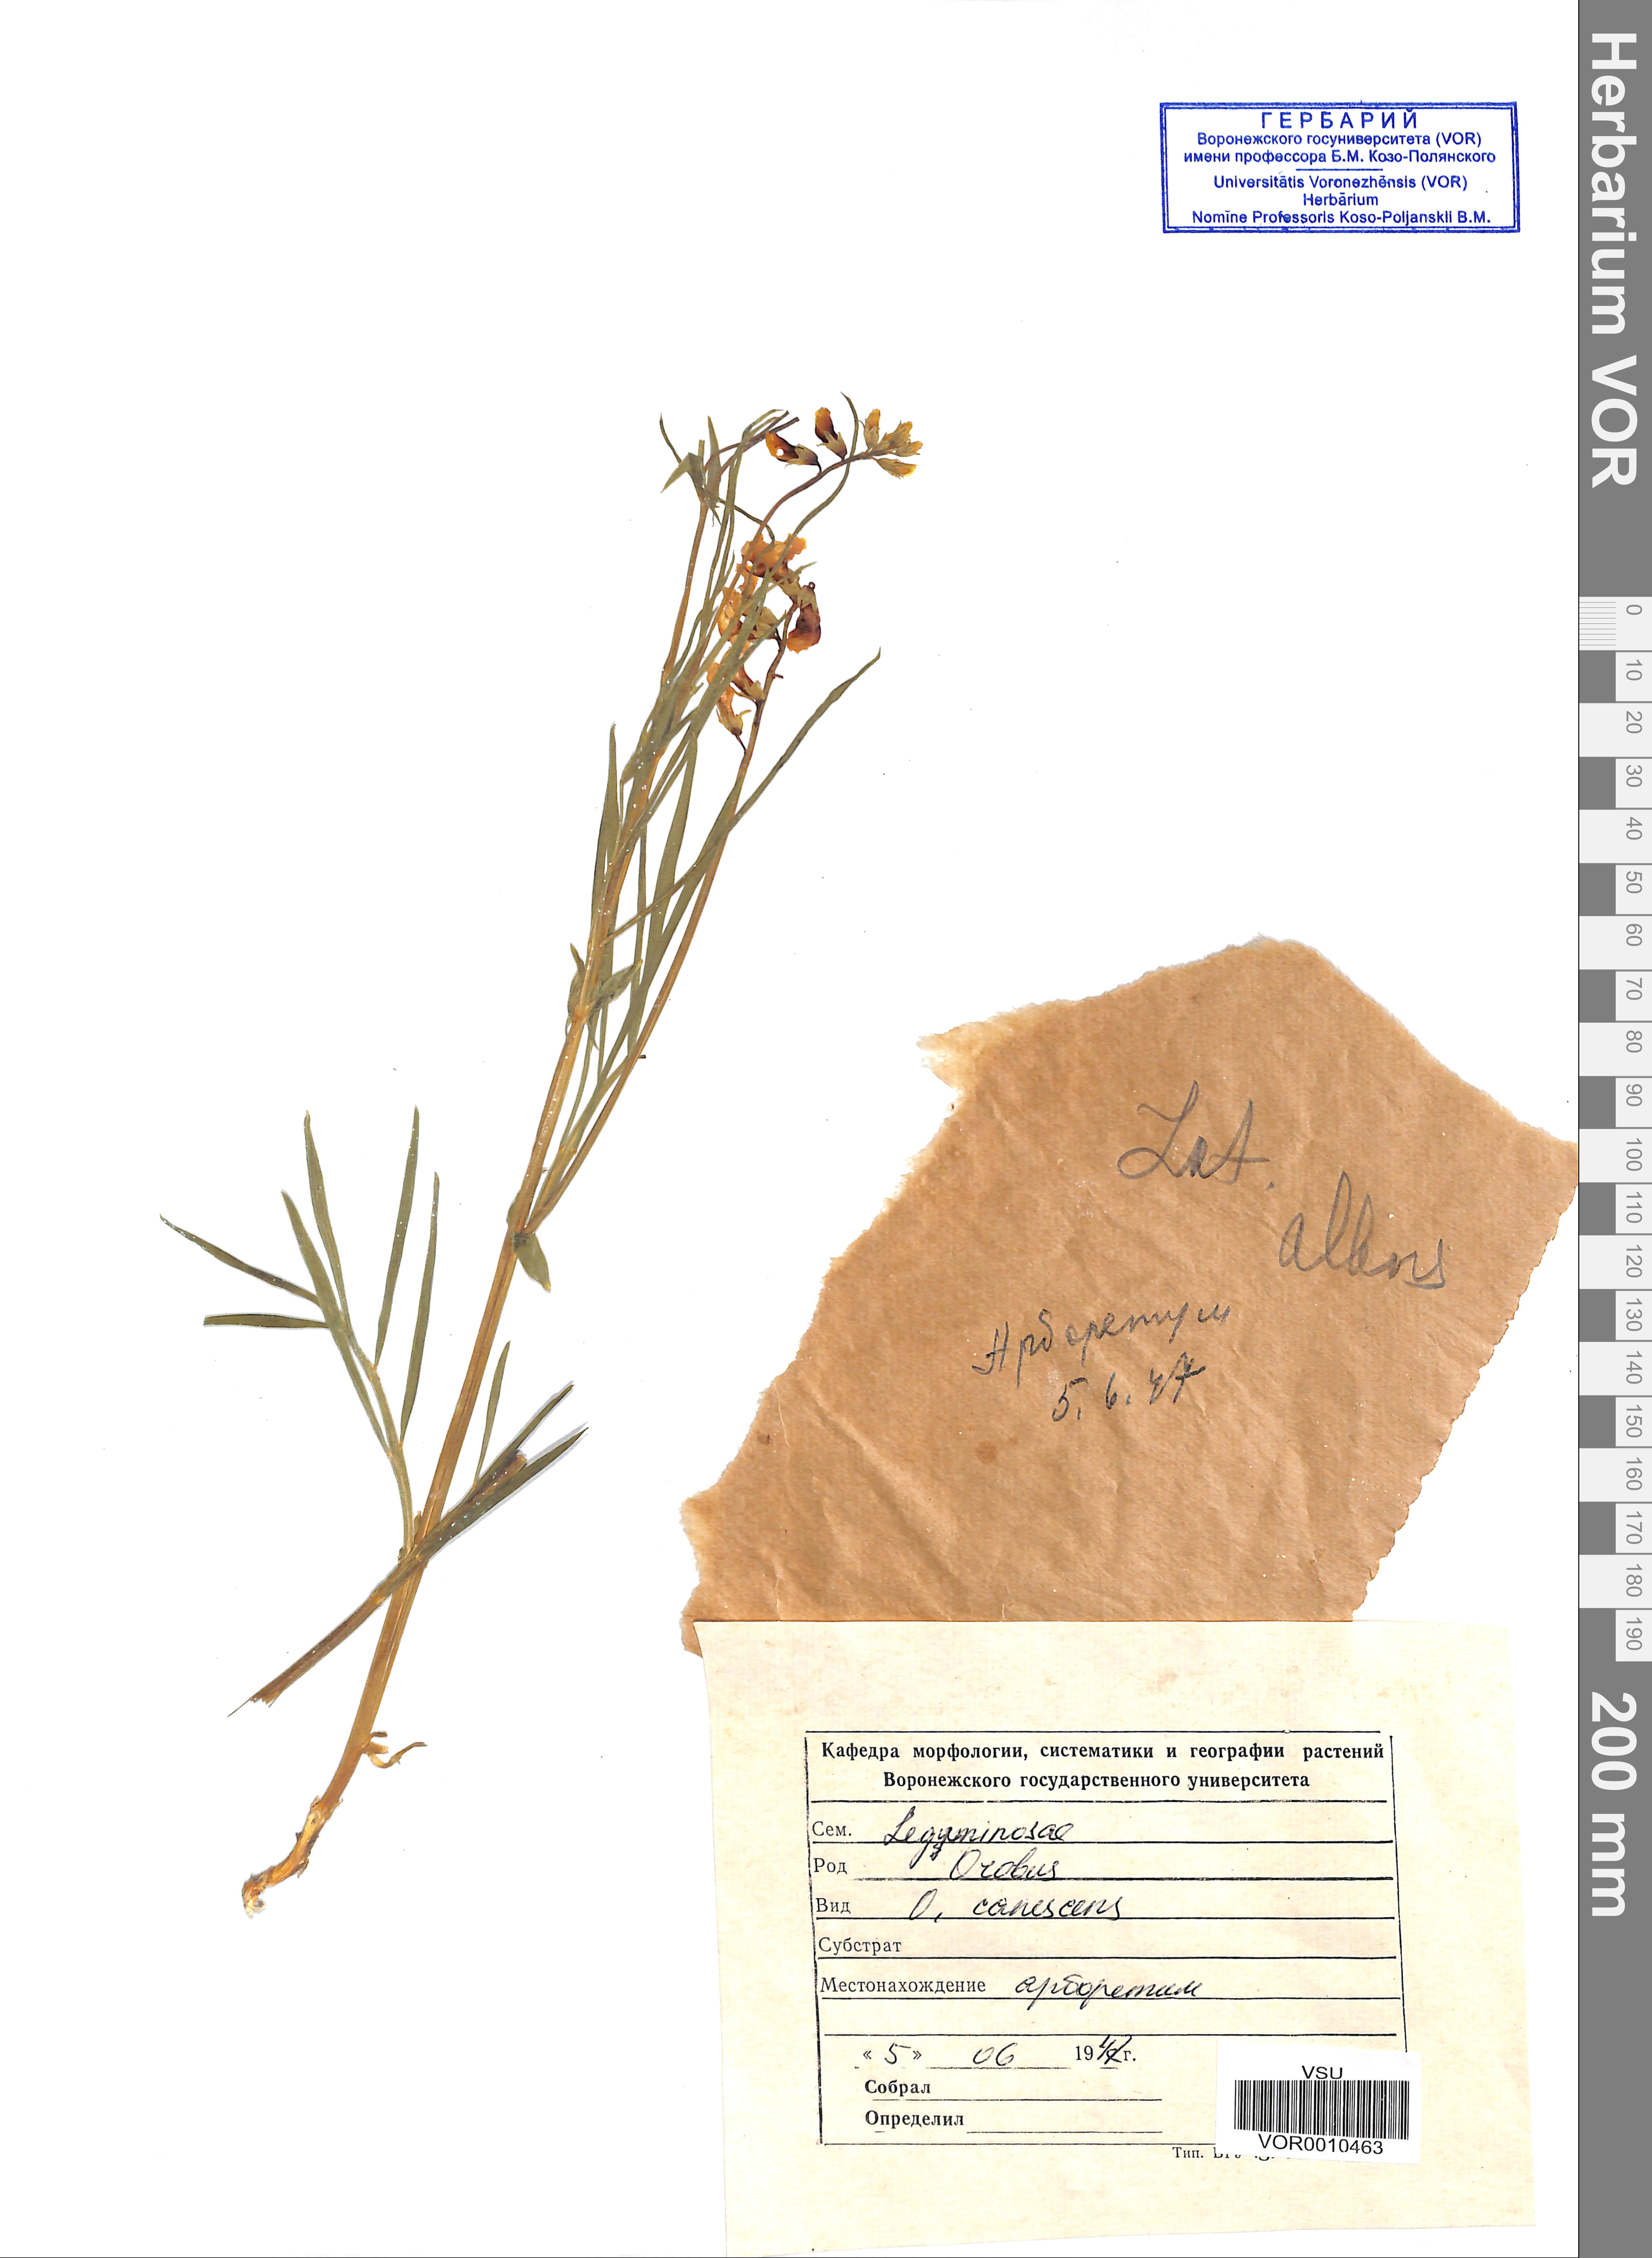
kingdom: Plantae
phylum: Tracheophyta
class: Magnoliopsida
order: Fabales
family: Fabaceae
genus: Lathyrus
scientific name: Lathyrus filiformis
